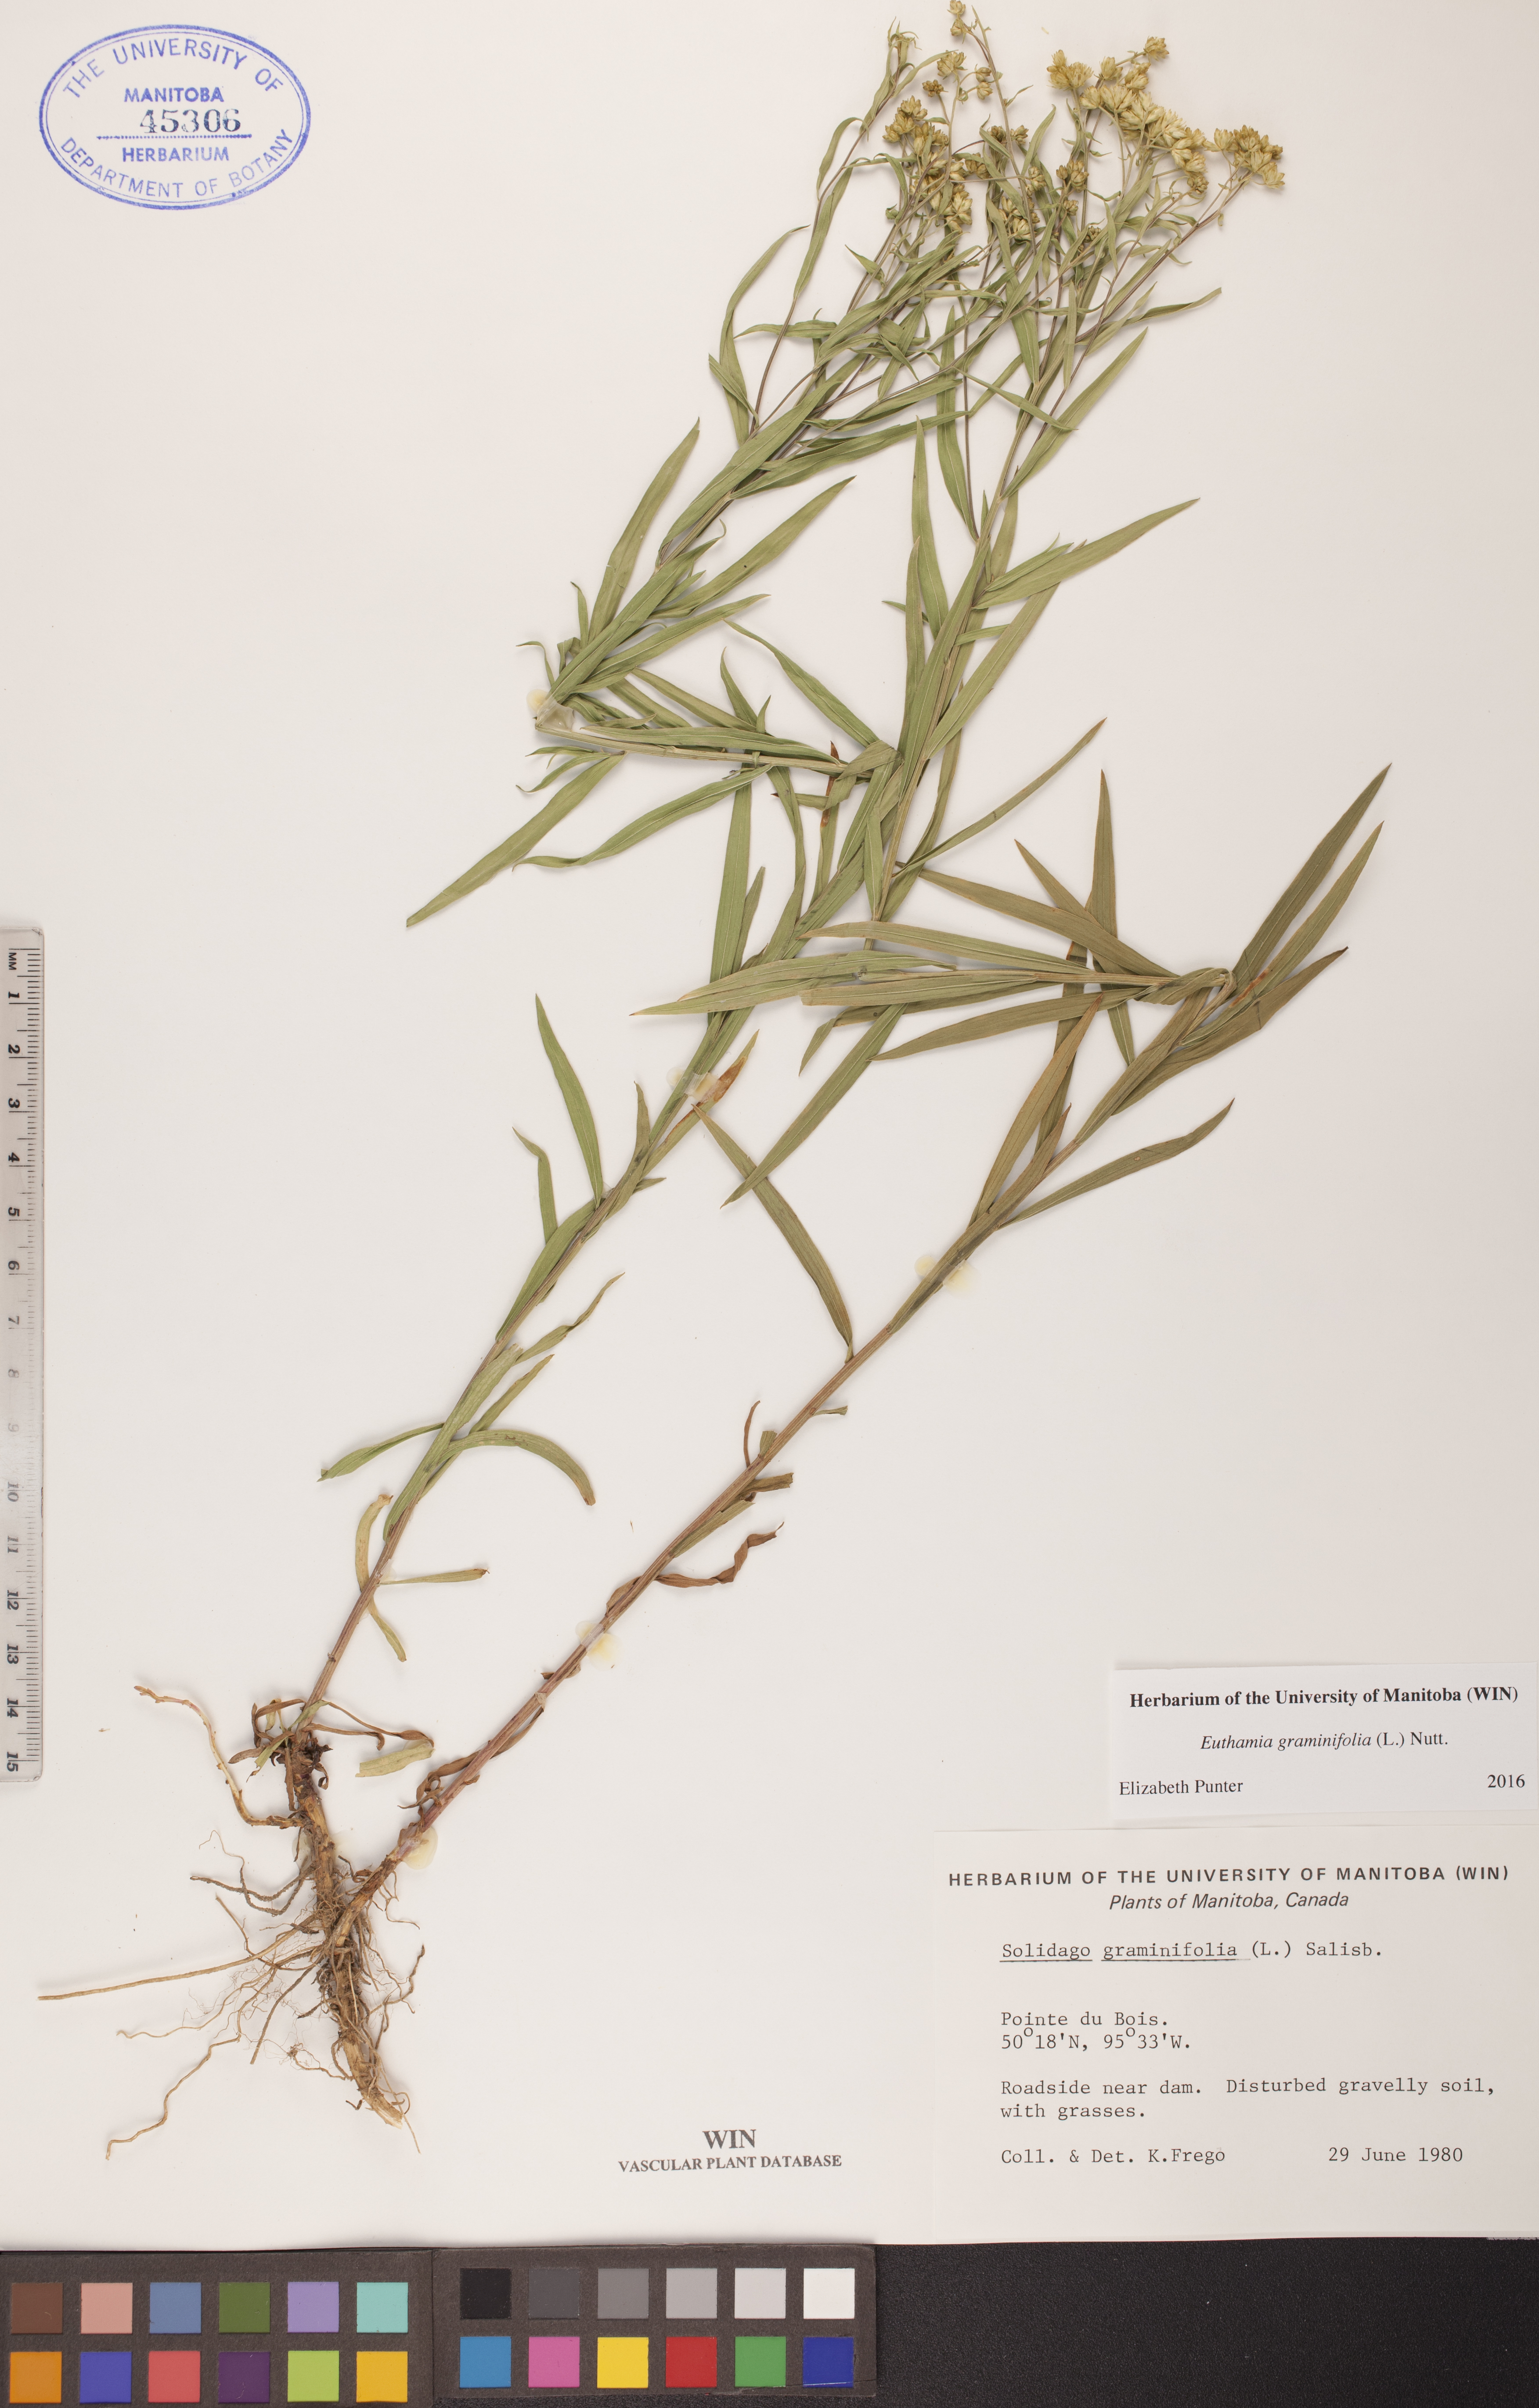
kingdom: Plantae
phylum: Tracheophyta
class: Magnoliopsida
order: Asterales
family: Asteraceae
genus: Euthamia
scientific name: Euthamia graminifolia
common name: Common goldentop
